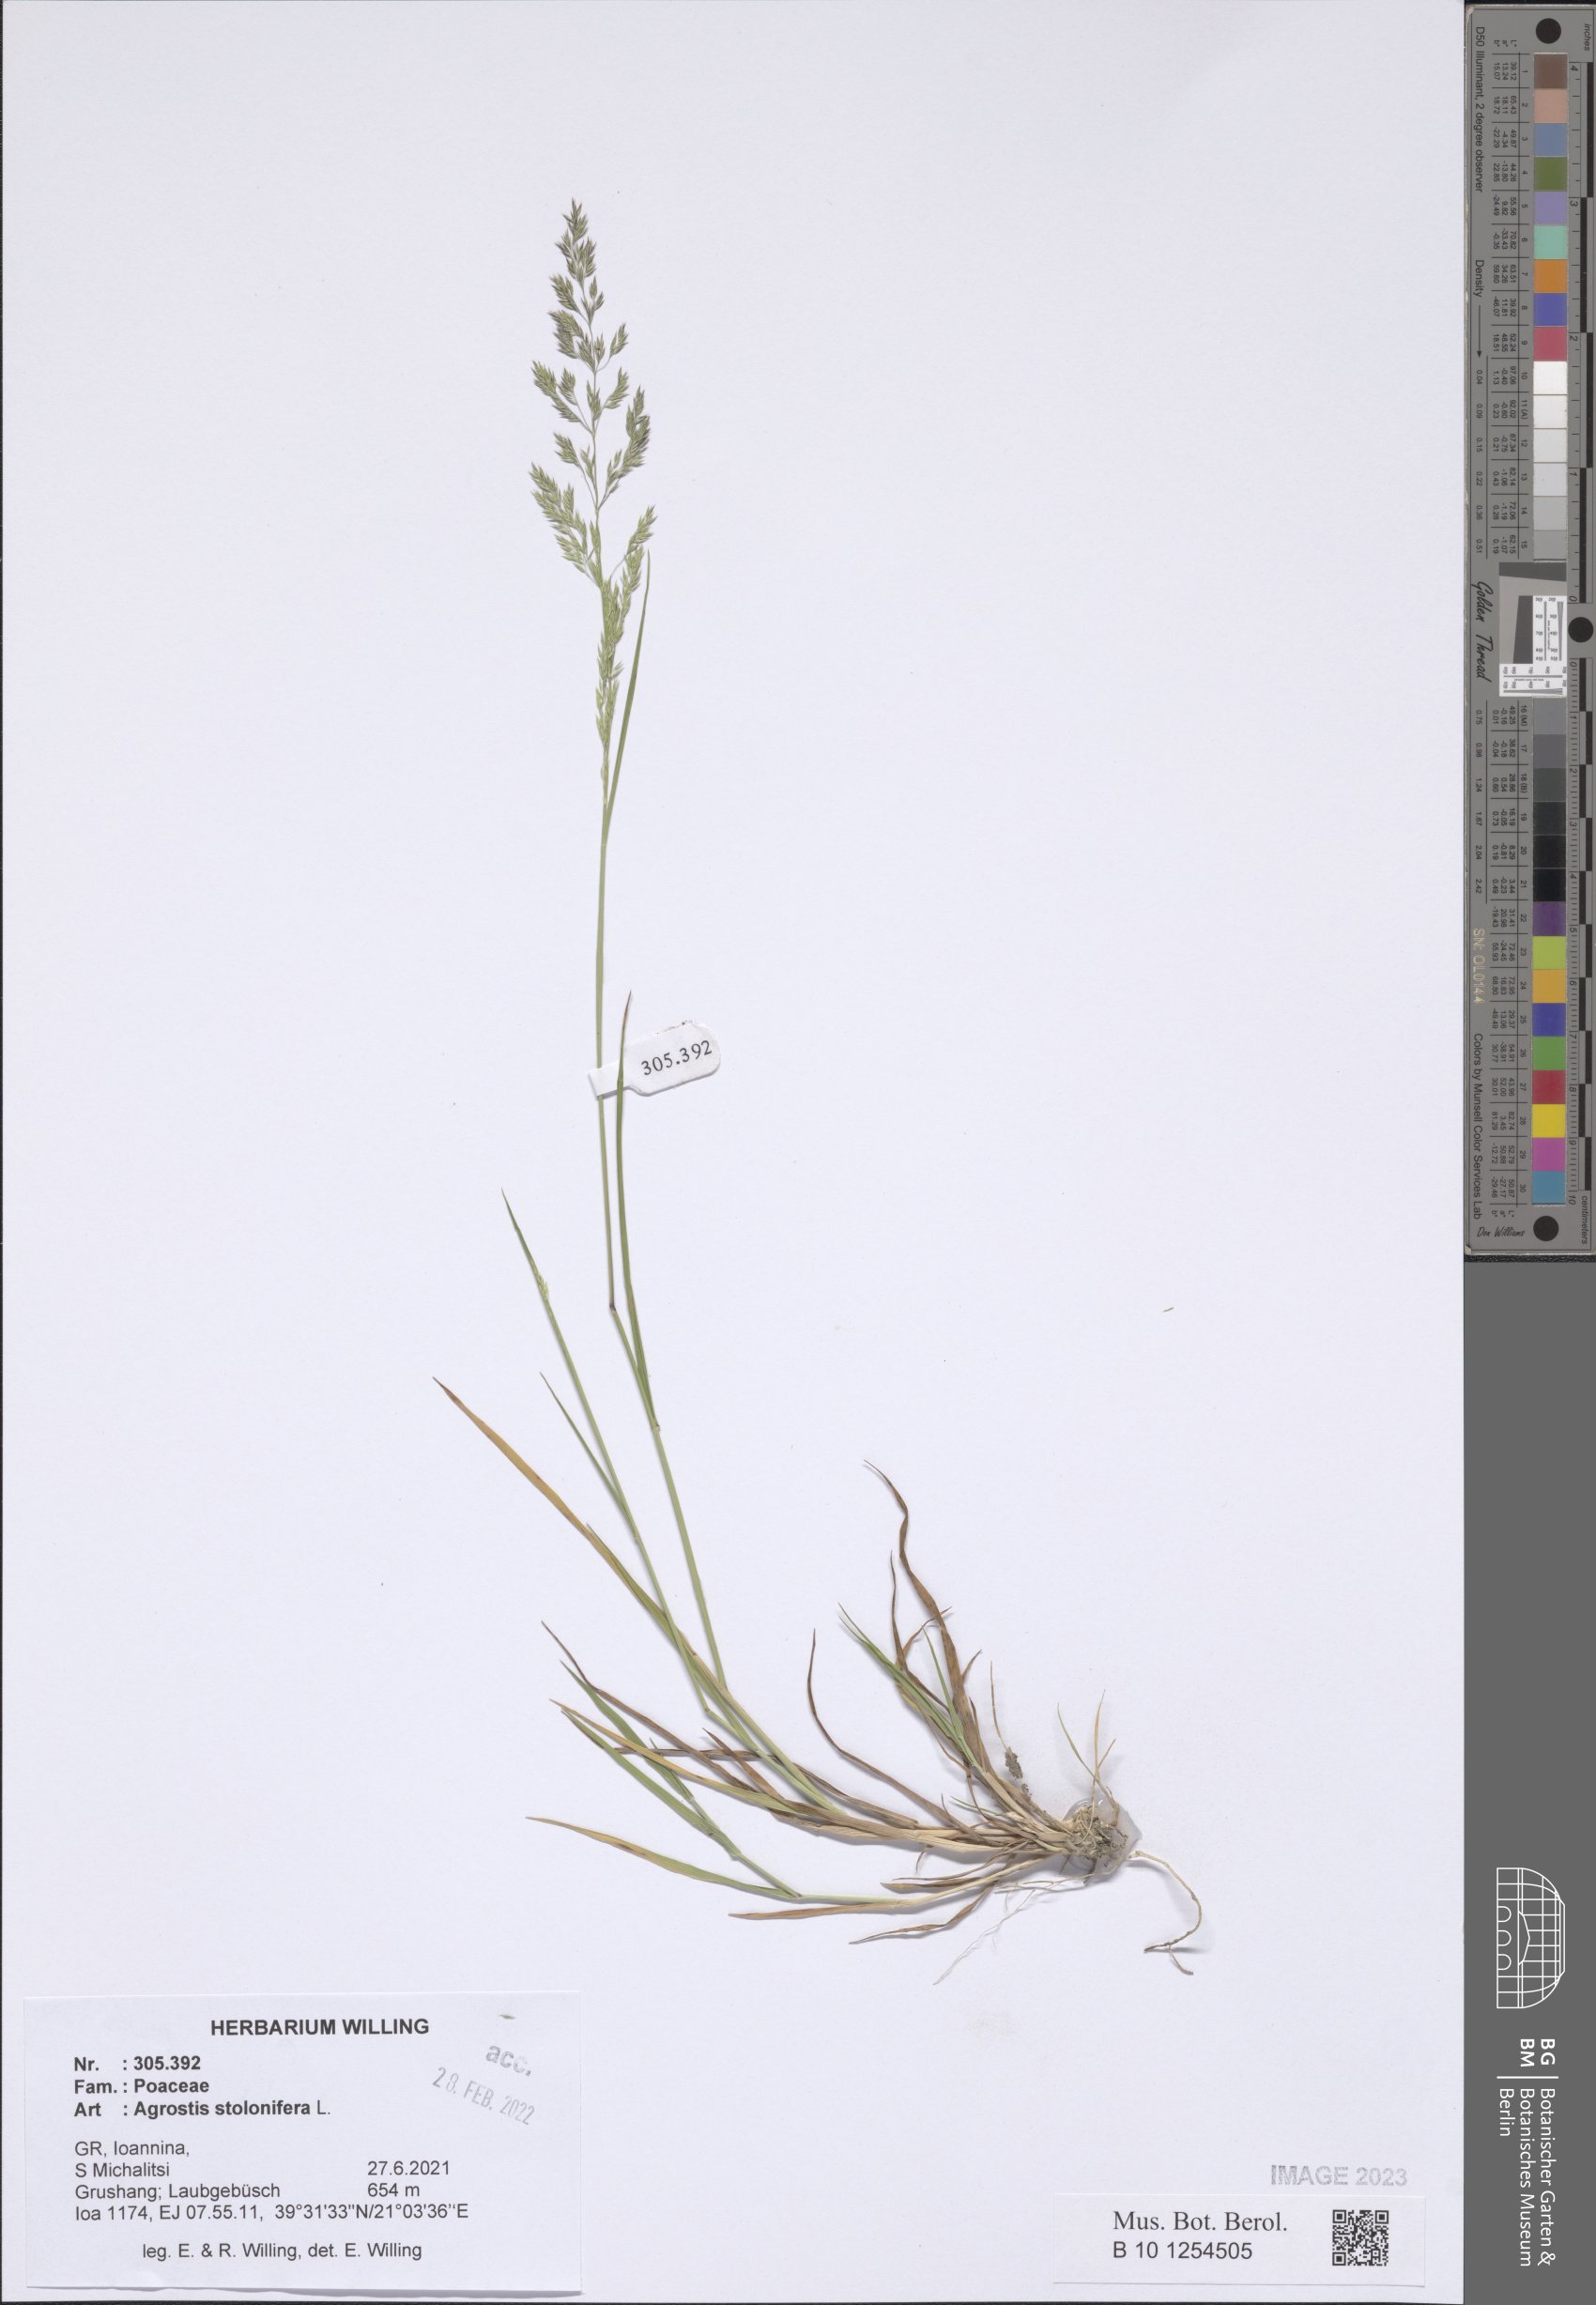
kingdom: Plantae
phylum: Tracheophyta
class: Liliopsida
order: Poales
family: Poaceae
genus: Agrostis
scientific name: Agrostis stolonifera
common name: Creeping bentgrass
